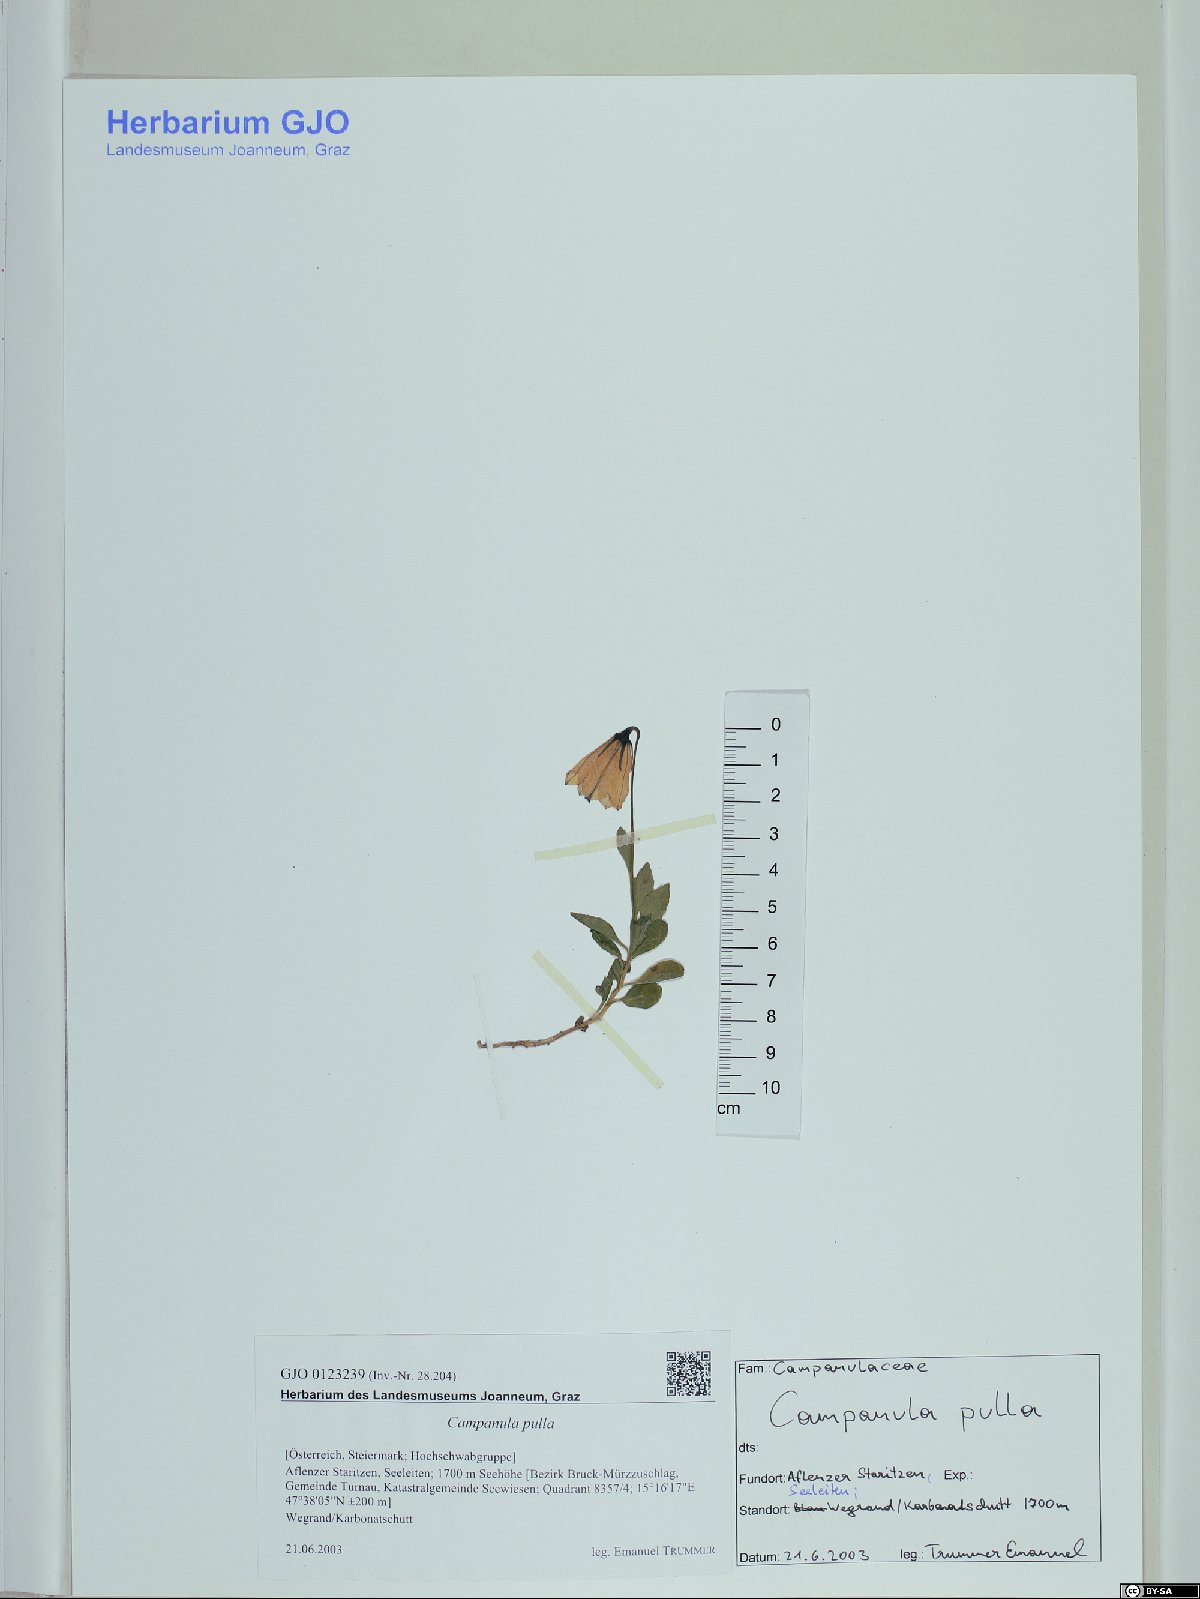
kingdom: Plantae
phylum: Tracheophyta
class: Magnoliopsida
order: Asterales
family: Campanulaceae
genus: Campanula
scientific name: Campanula pulla
